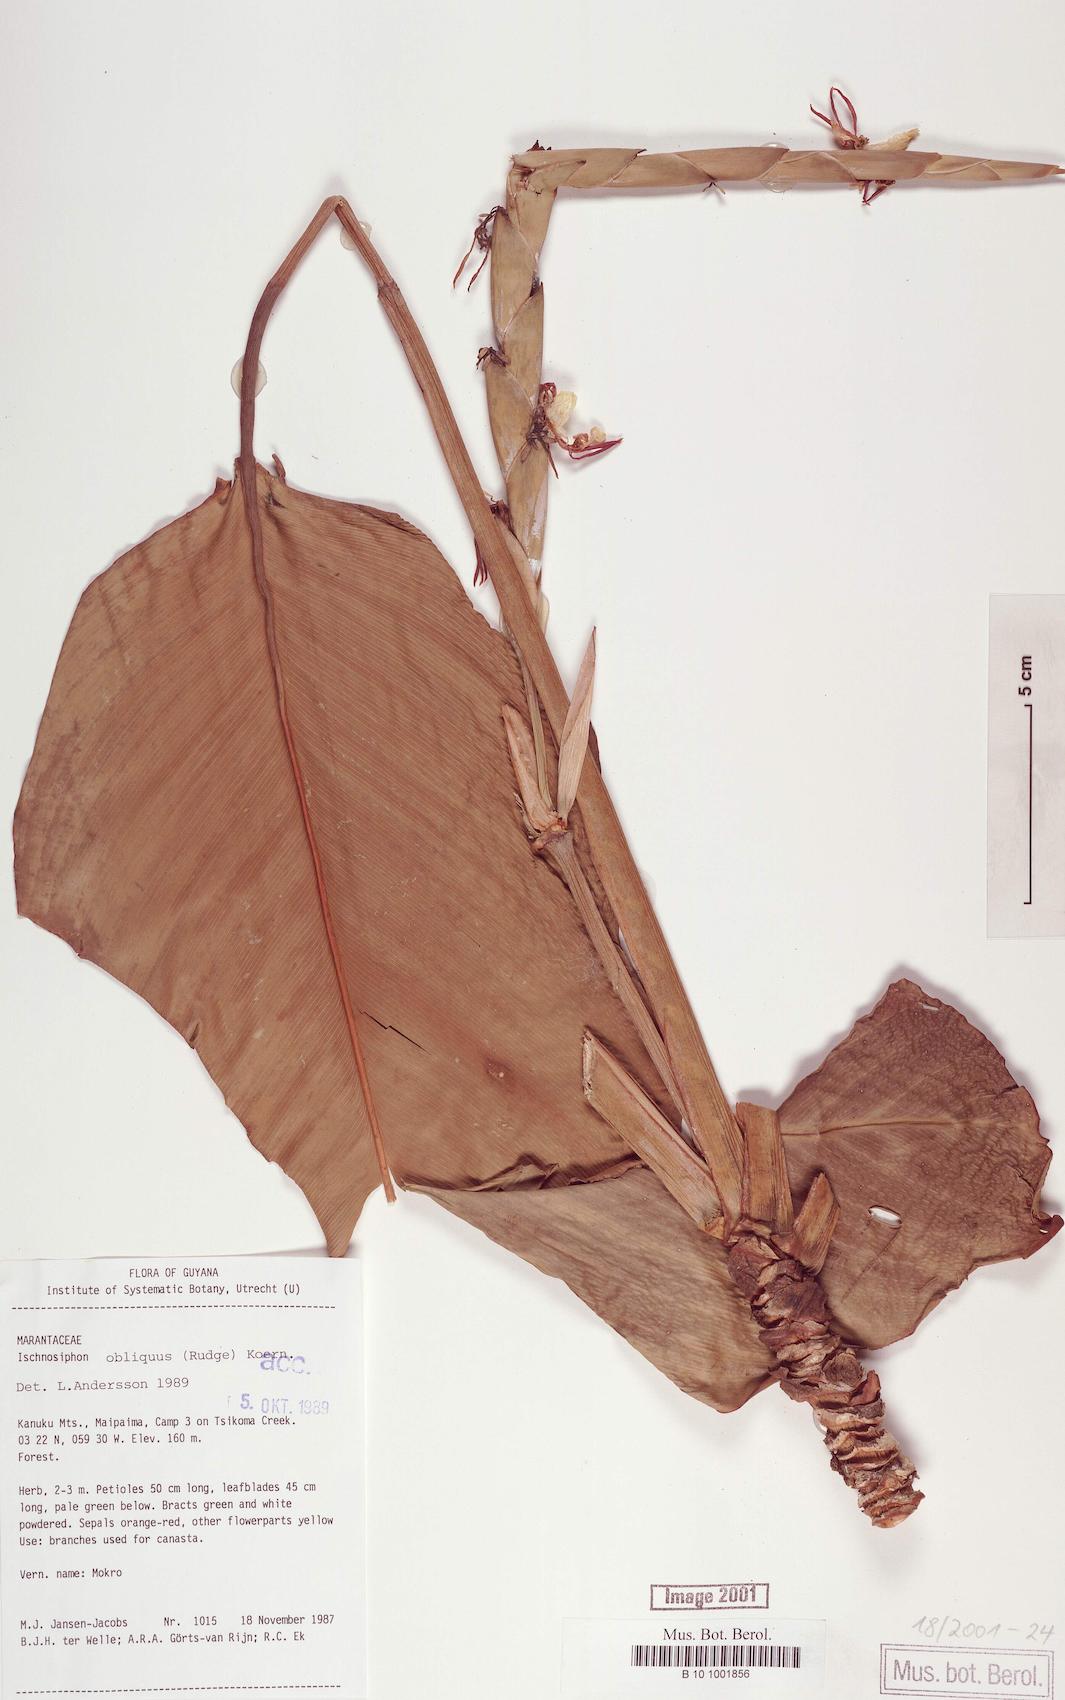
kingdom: Plantae
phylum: Tracheophyta
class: Liliopsida
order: Zingiberales
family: Marantaceae
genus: Ischnosiphon
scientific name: Ischnosiphon obliquus
